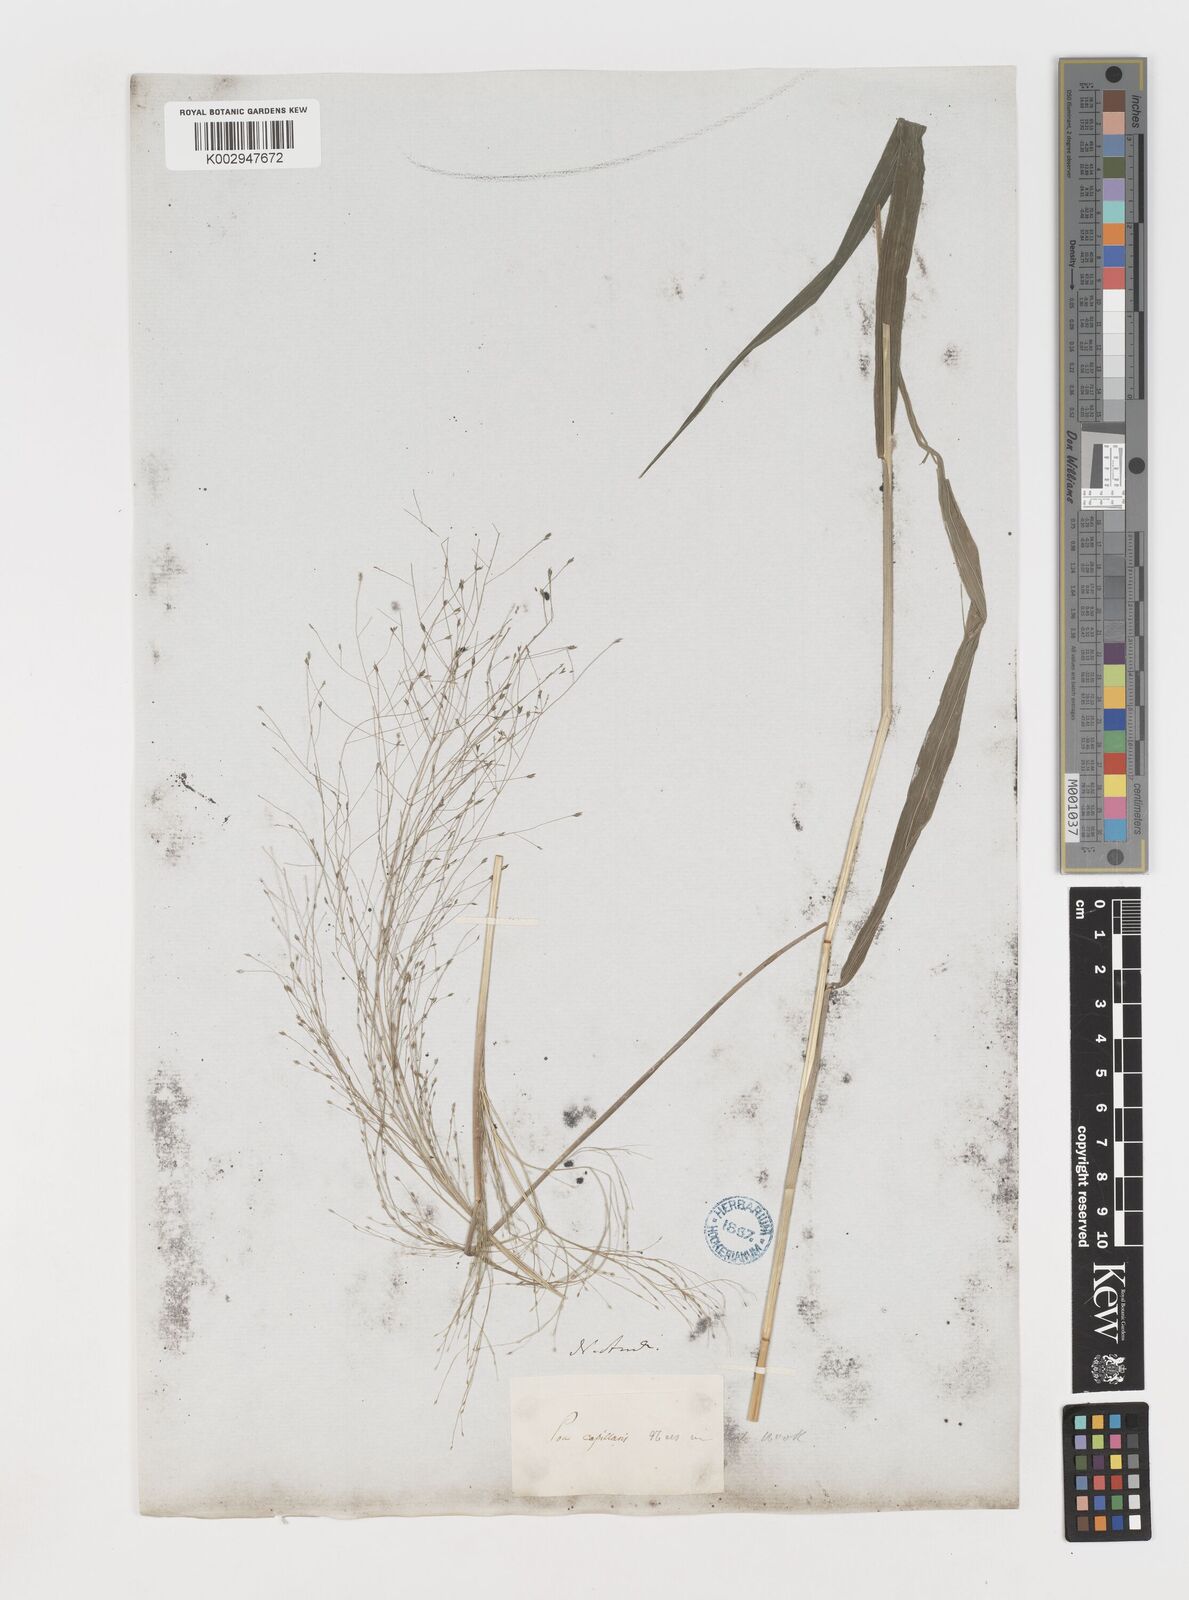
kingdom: Plantae
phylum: Tracheophyta
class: Liliopsida
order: Poales
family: Poaceae
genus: Eragrostis
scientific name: Eragrostis capillaris
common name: Hair-like lovegrass
